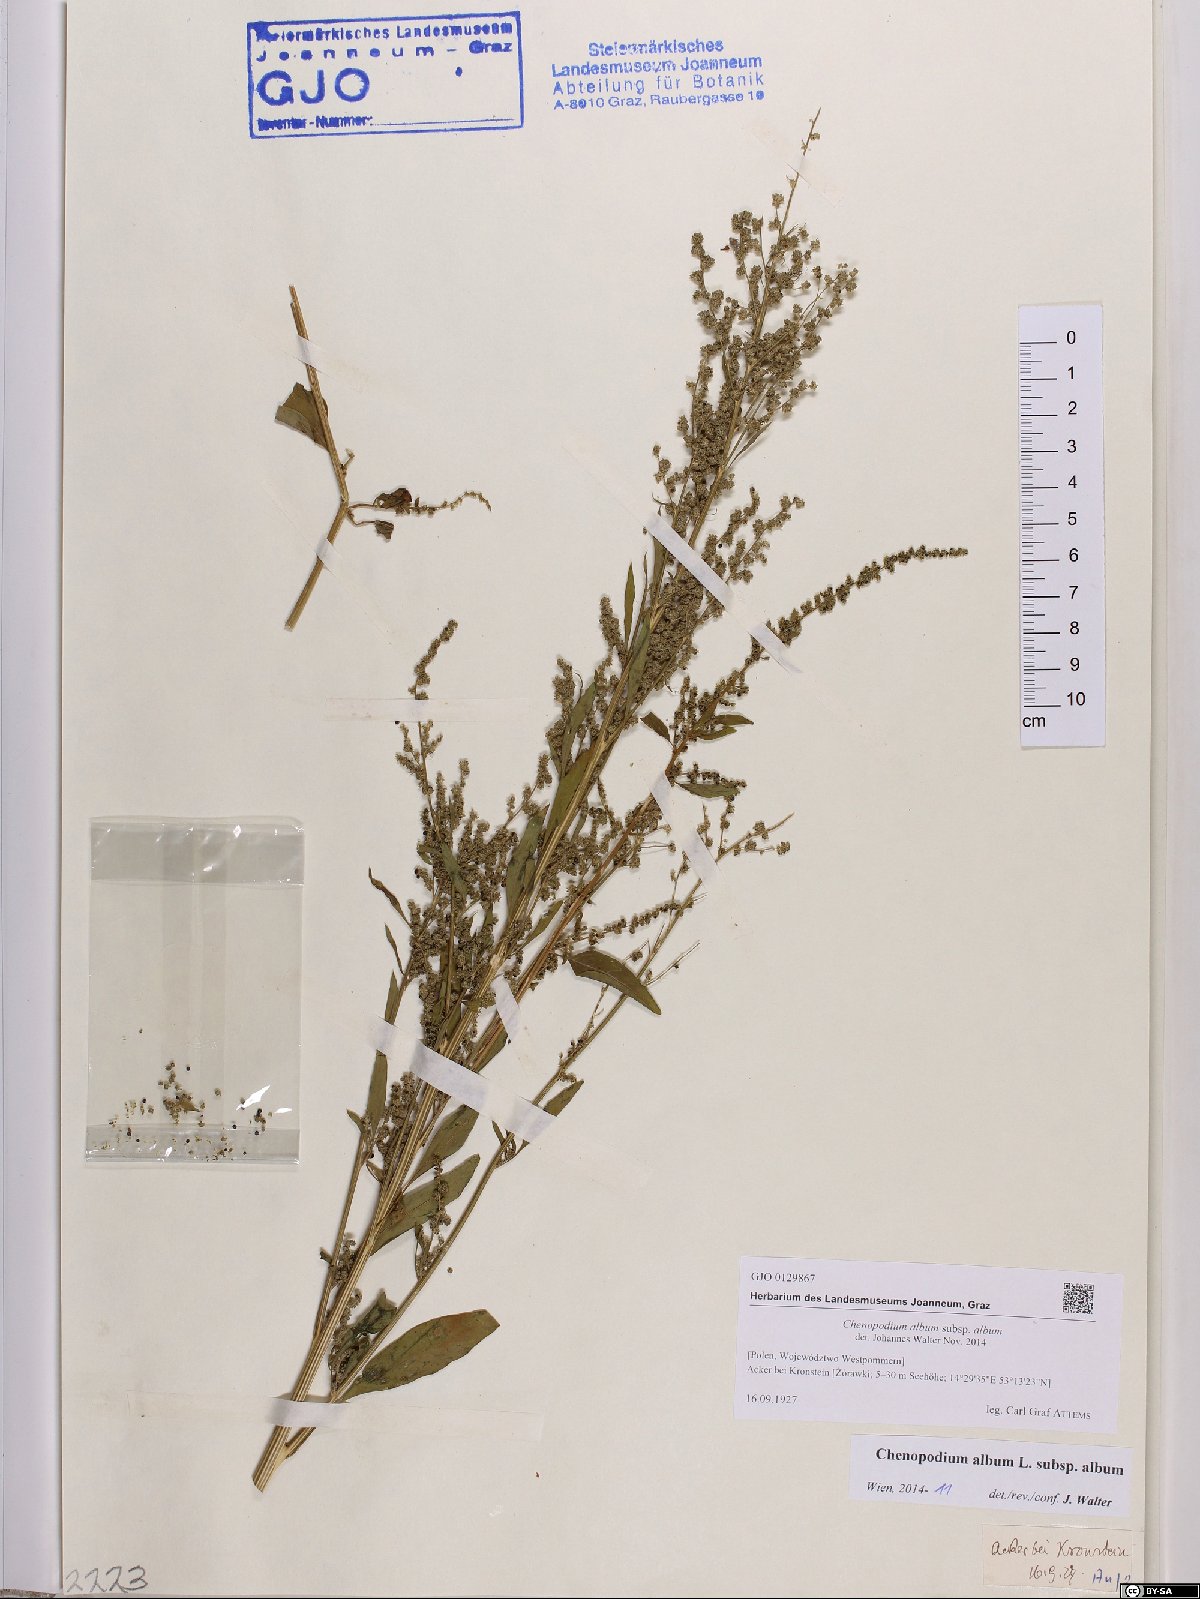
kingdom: Plantae
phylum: Tracheophyta
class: Magnoliopsida
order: Caryophyllales
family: Amaranthaceae
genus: Chenopodium
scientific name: Chenopodium album
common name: Fat-hen
